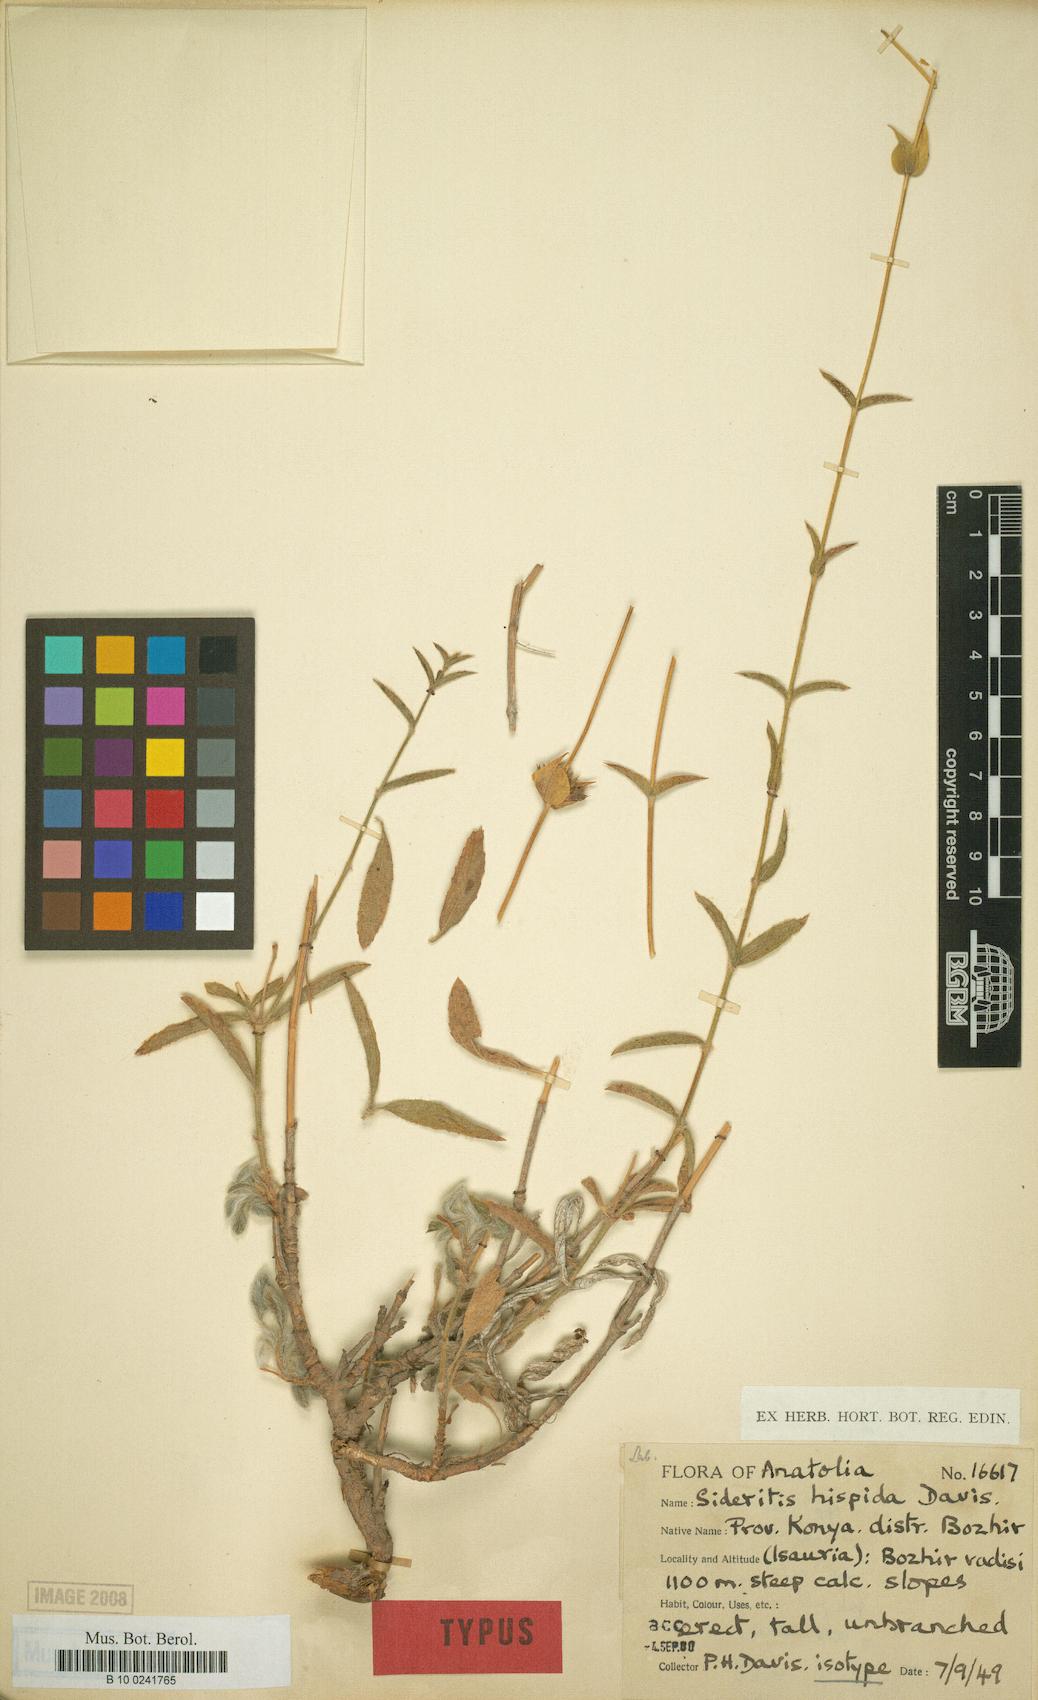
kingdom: Plantae
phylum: Tracheophyta
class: Magnoliopsida
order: Lamiales
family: Lamiaceae
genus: Sideritis
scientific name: Sideritis hispida
